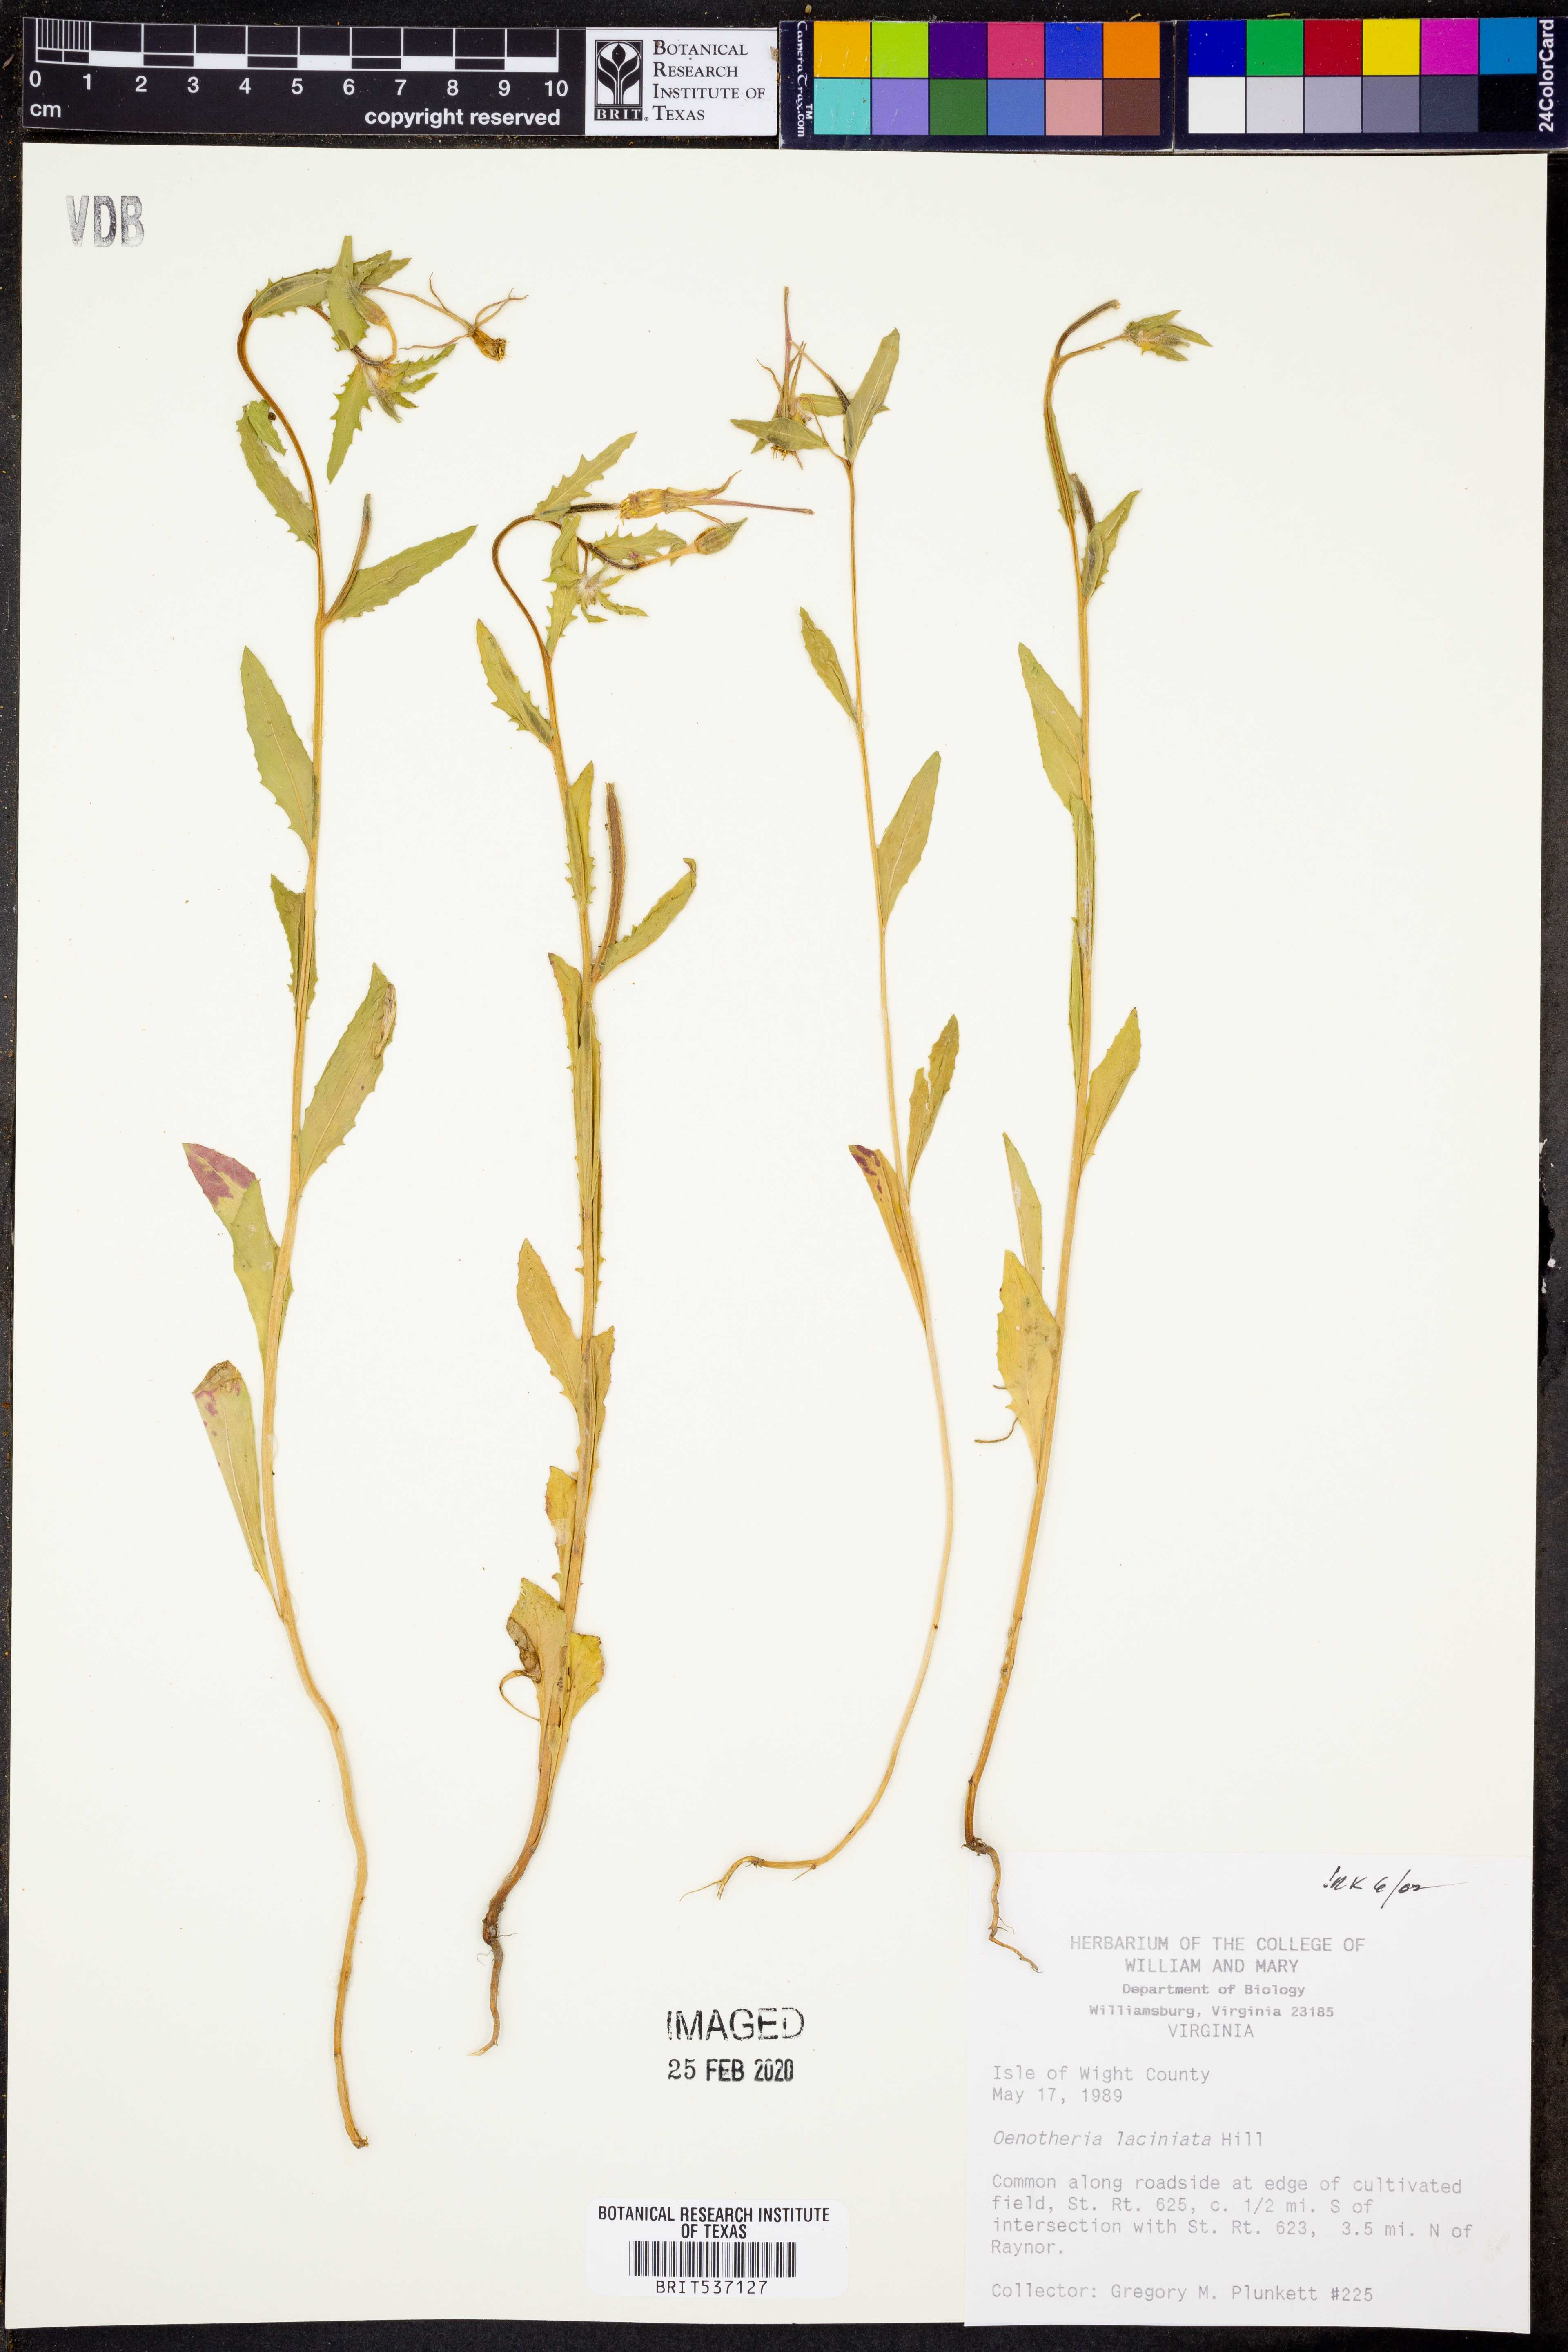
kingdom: Plantae
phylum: Tracheophyta
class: Magnoliopsida
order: Myrtales
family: Onagraceae
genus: Oenothera
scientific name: Oenothera laciniata
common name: Cut-leaved evening-primrose
